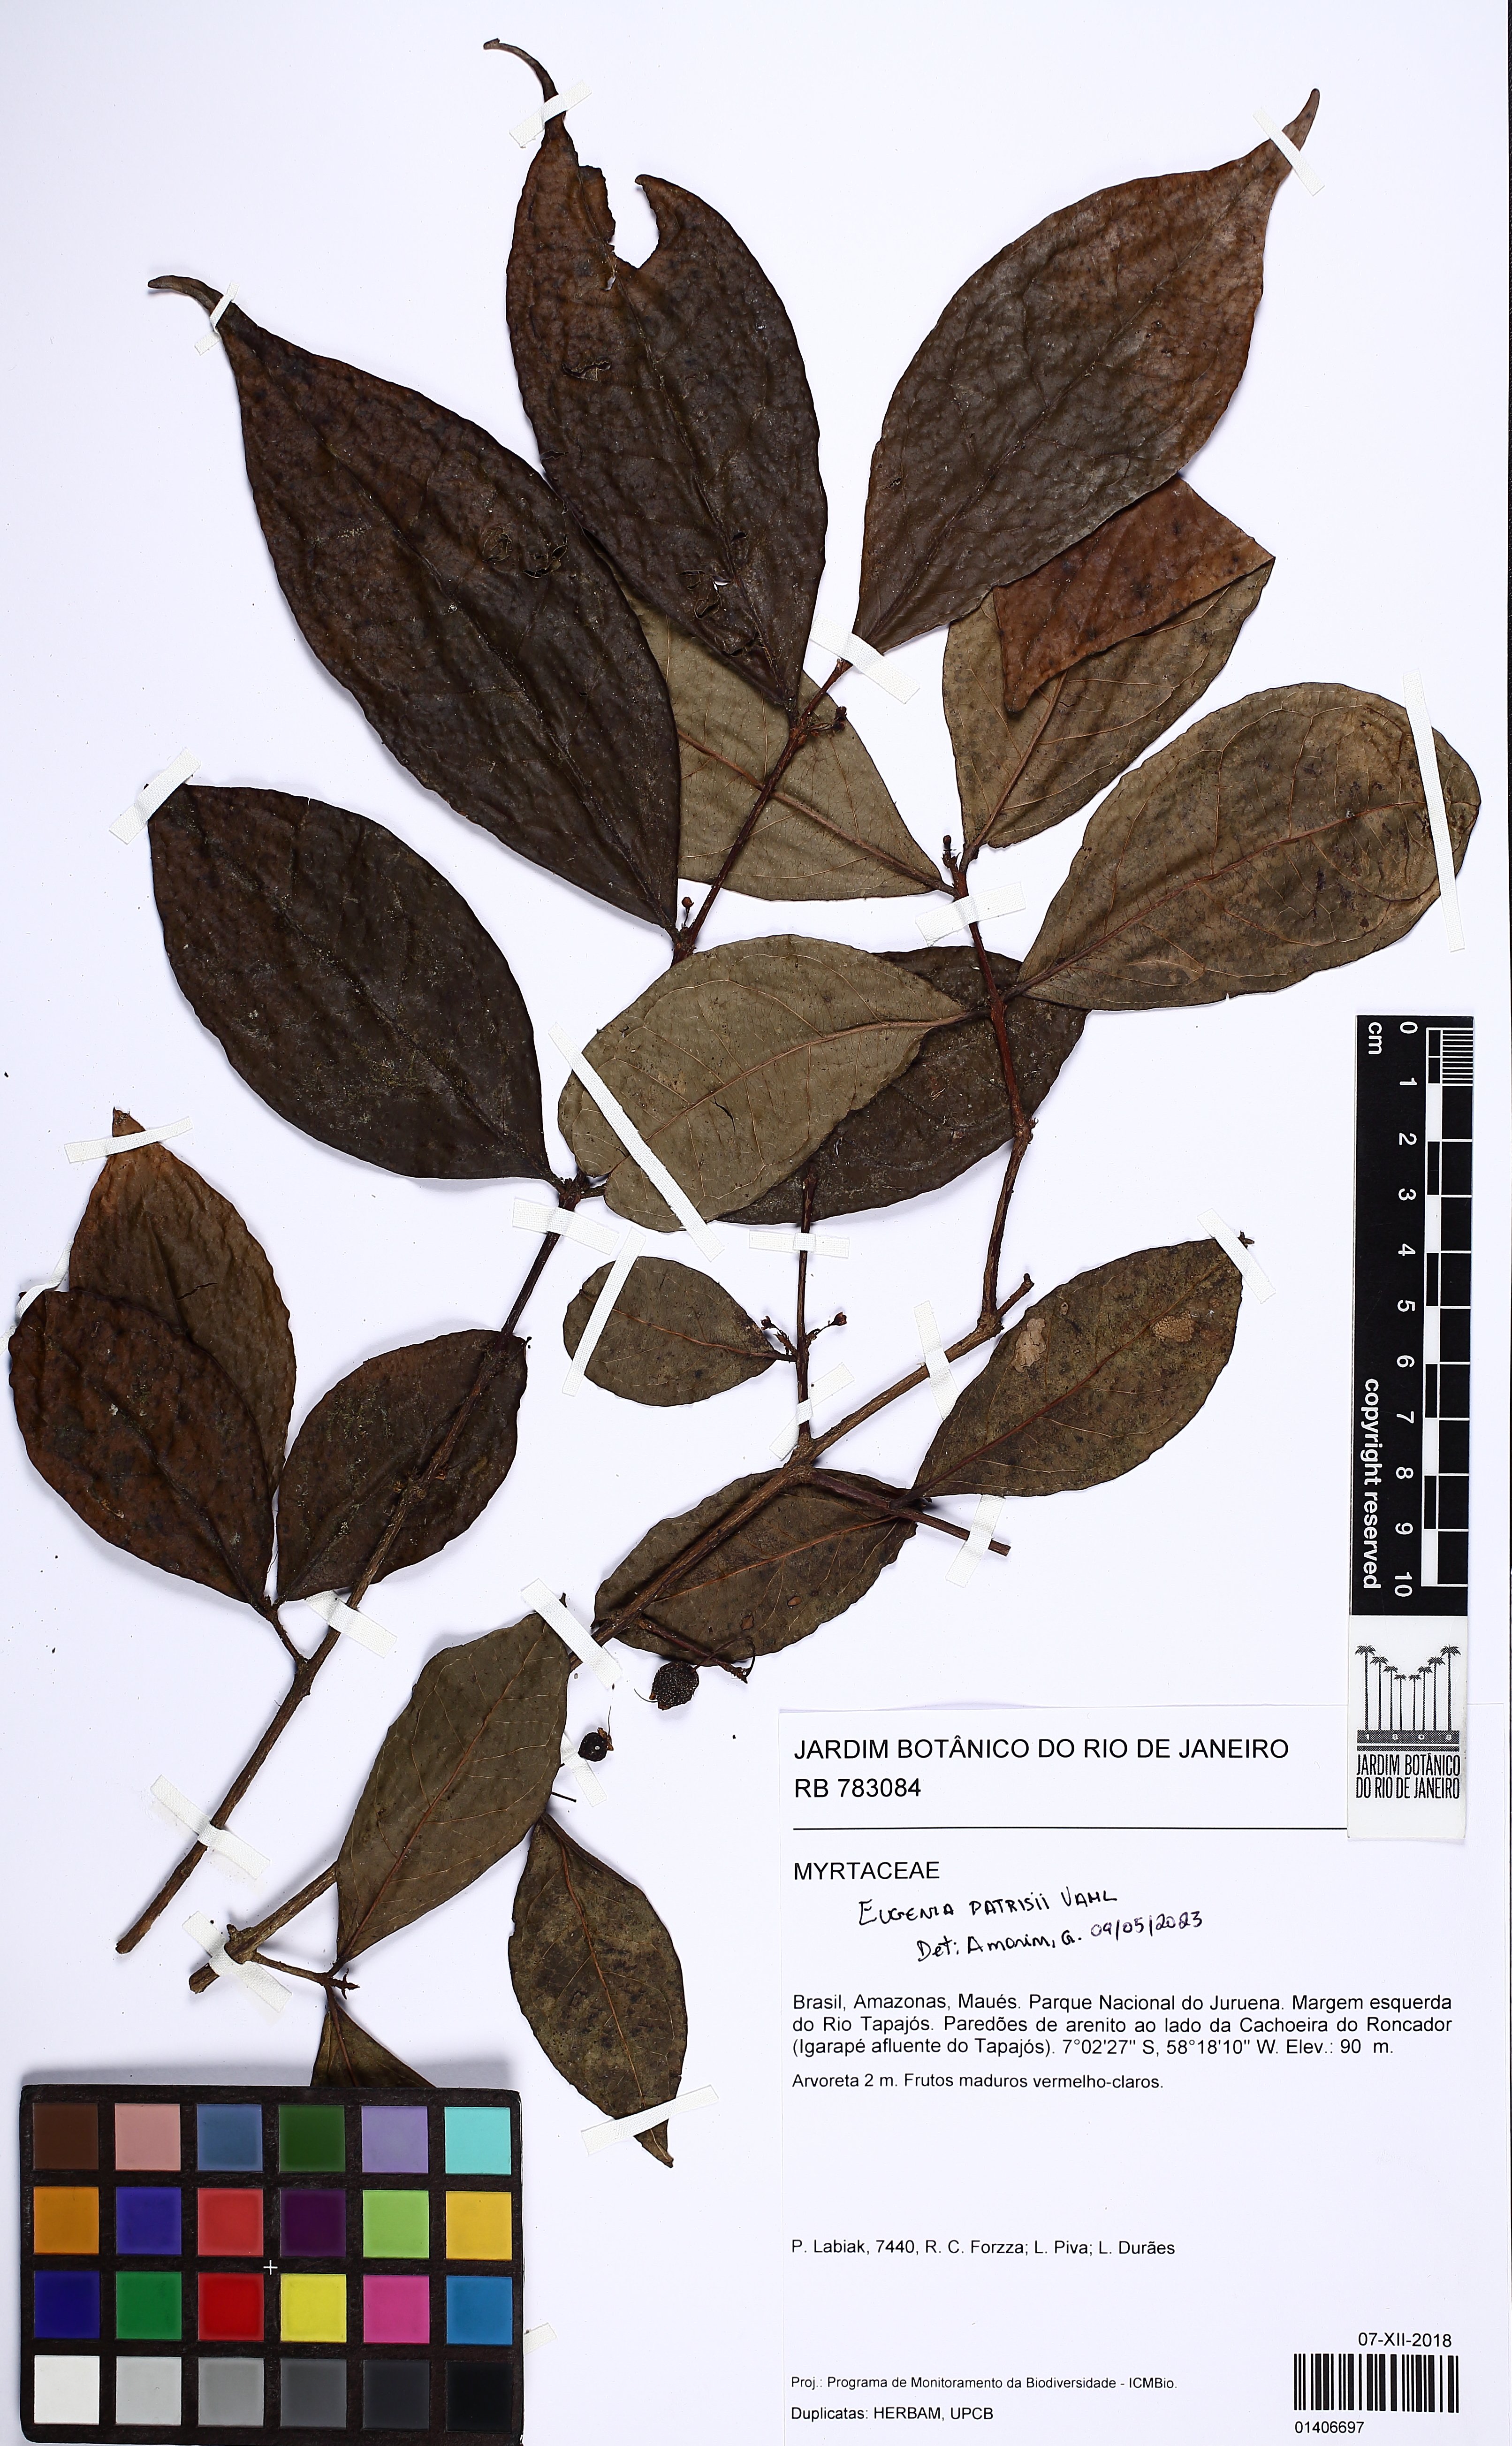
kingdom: Plantae
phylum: Tracheophyta
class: Magnoliopsida
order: Myrtales
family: Myrtaceae
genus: Eugenia
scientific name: Eugenia patrisii
